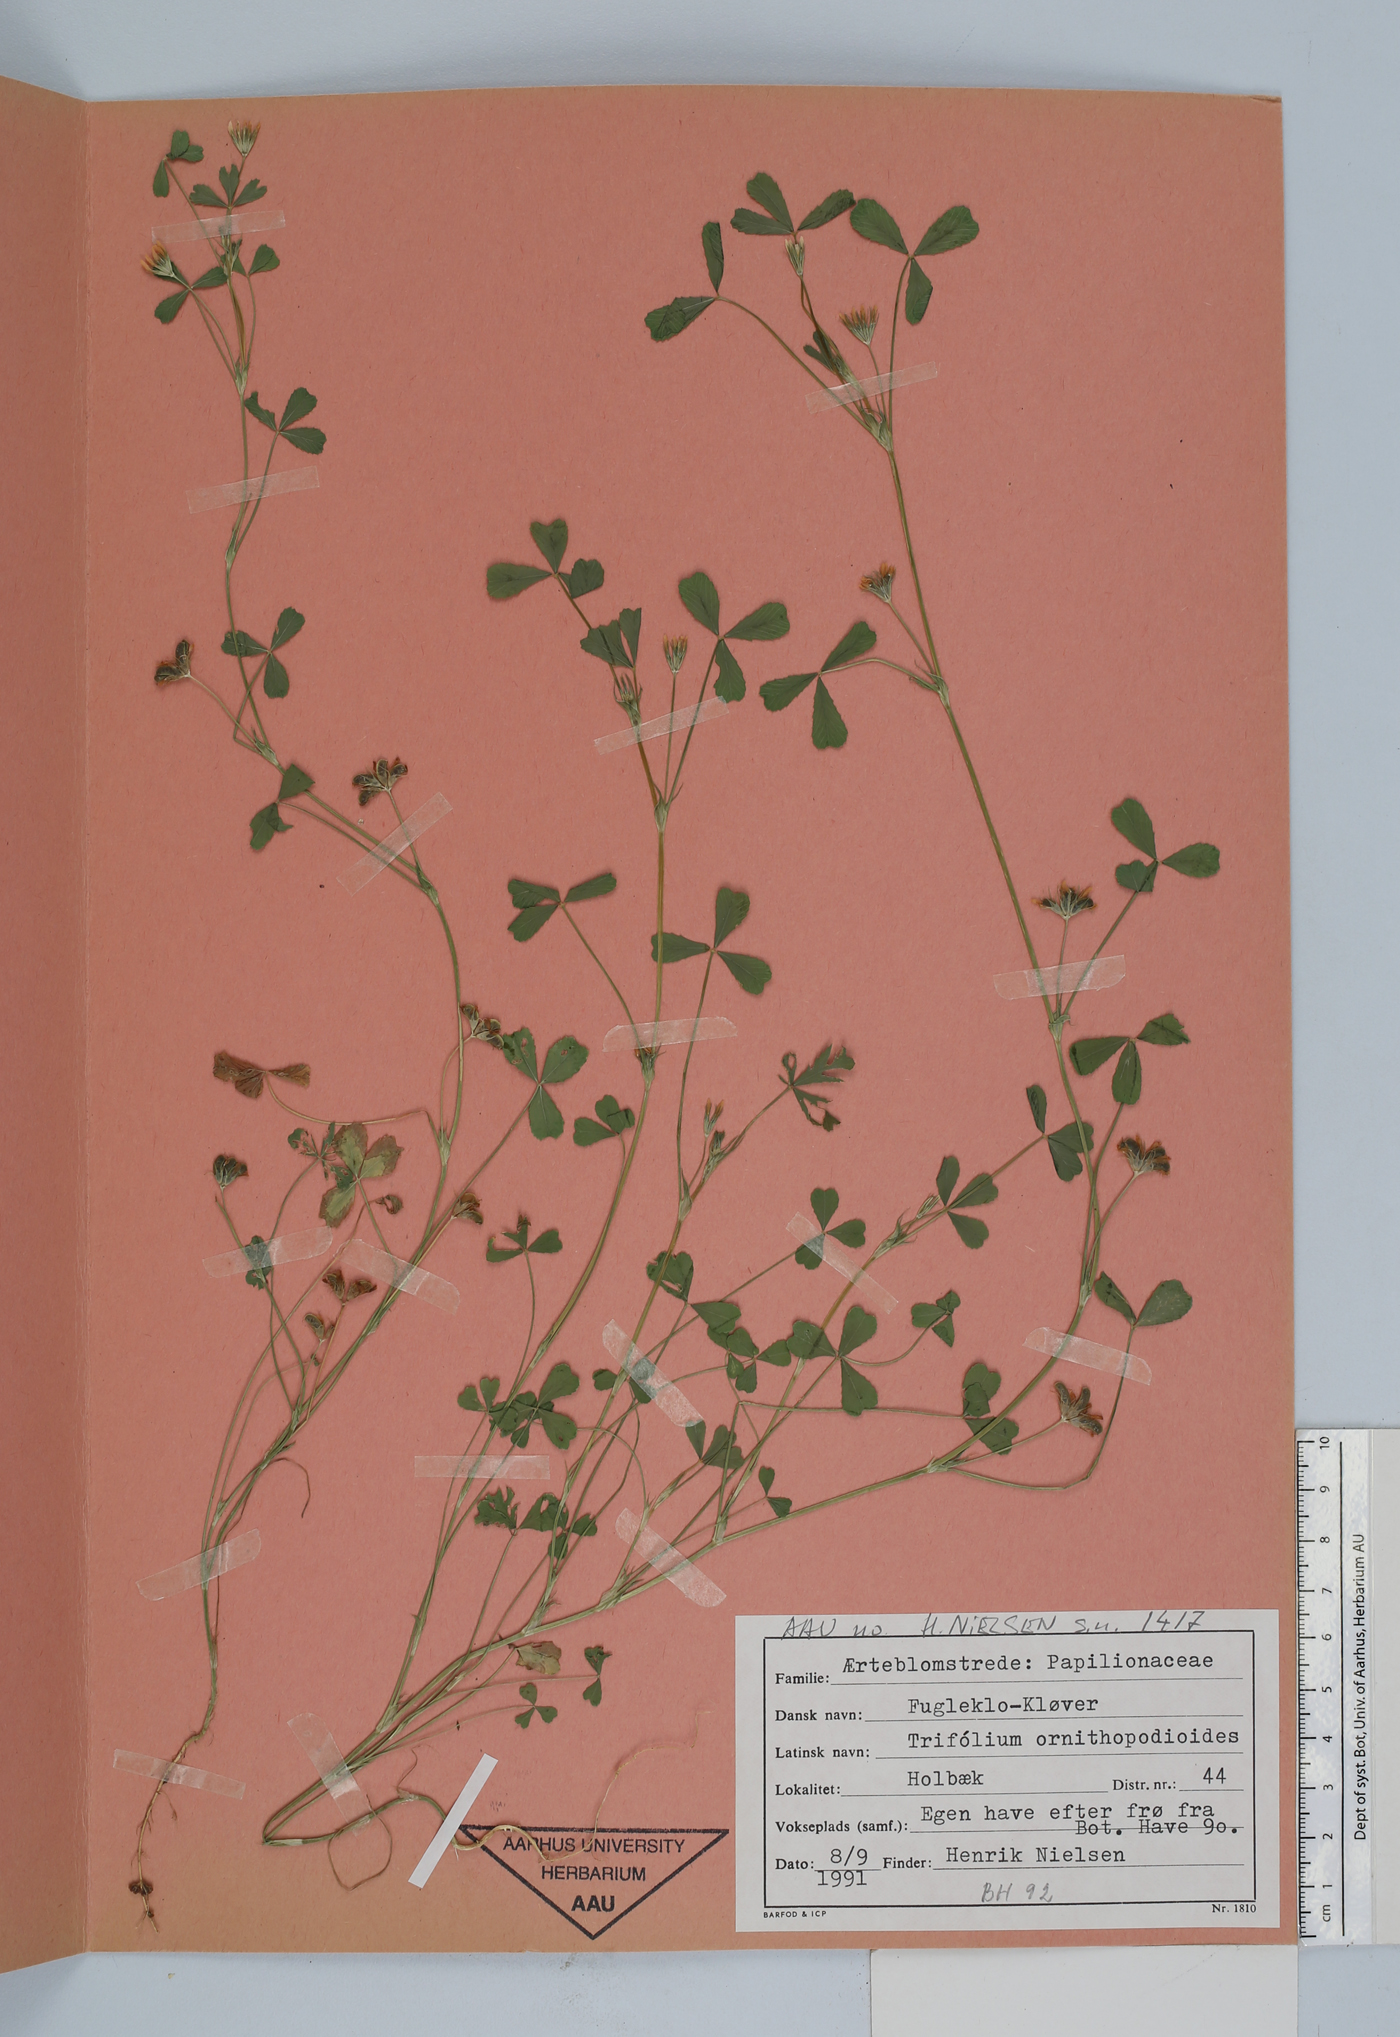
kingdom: Plantae
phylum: Tracheophyta
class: Magnoliopsida
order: Fabales
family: Fabaceae
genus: Trifolium
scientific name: Trifolium ornithopodioides
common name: Bird's-foot clover
